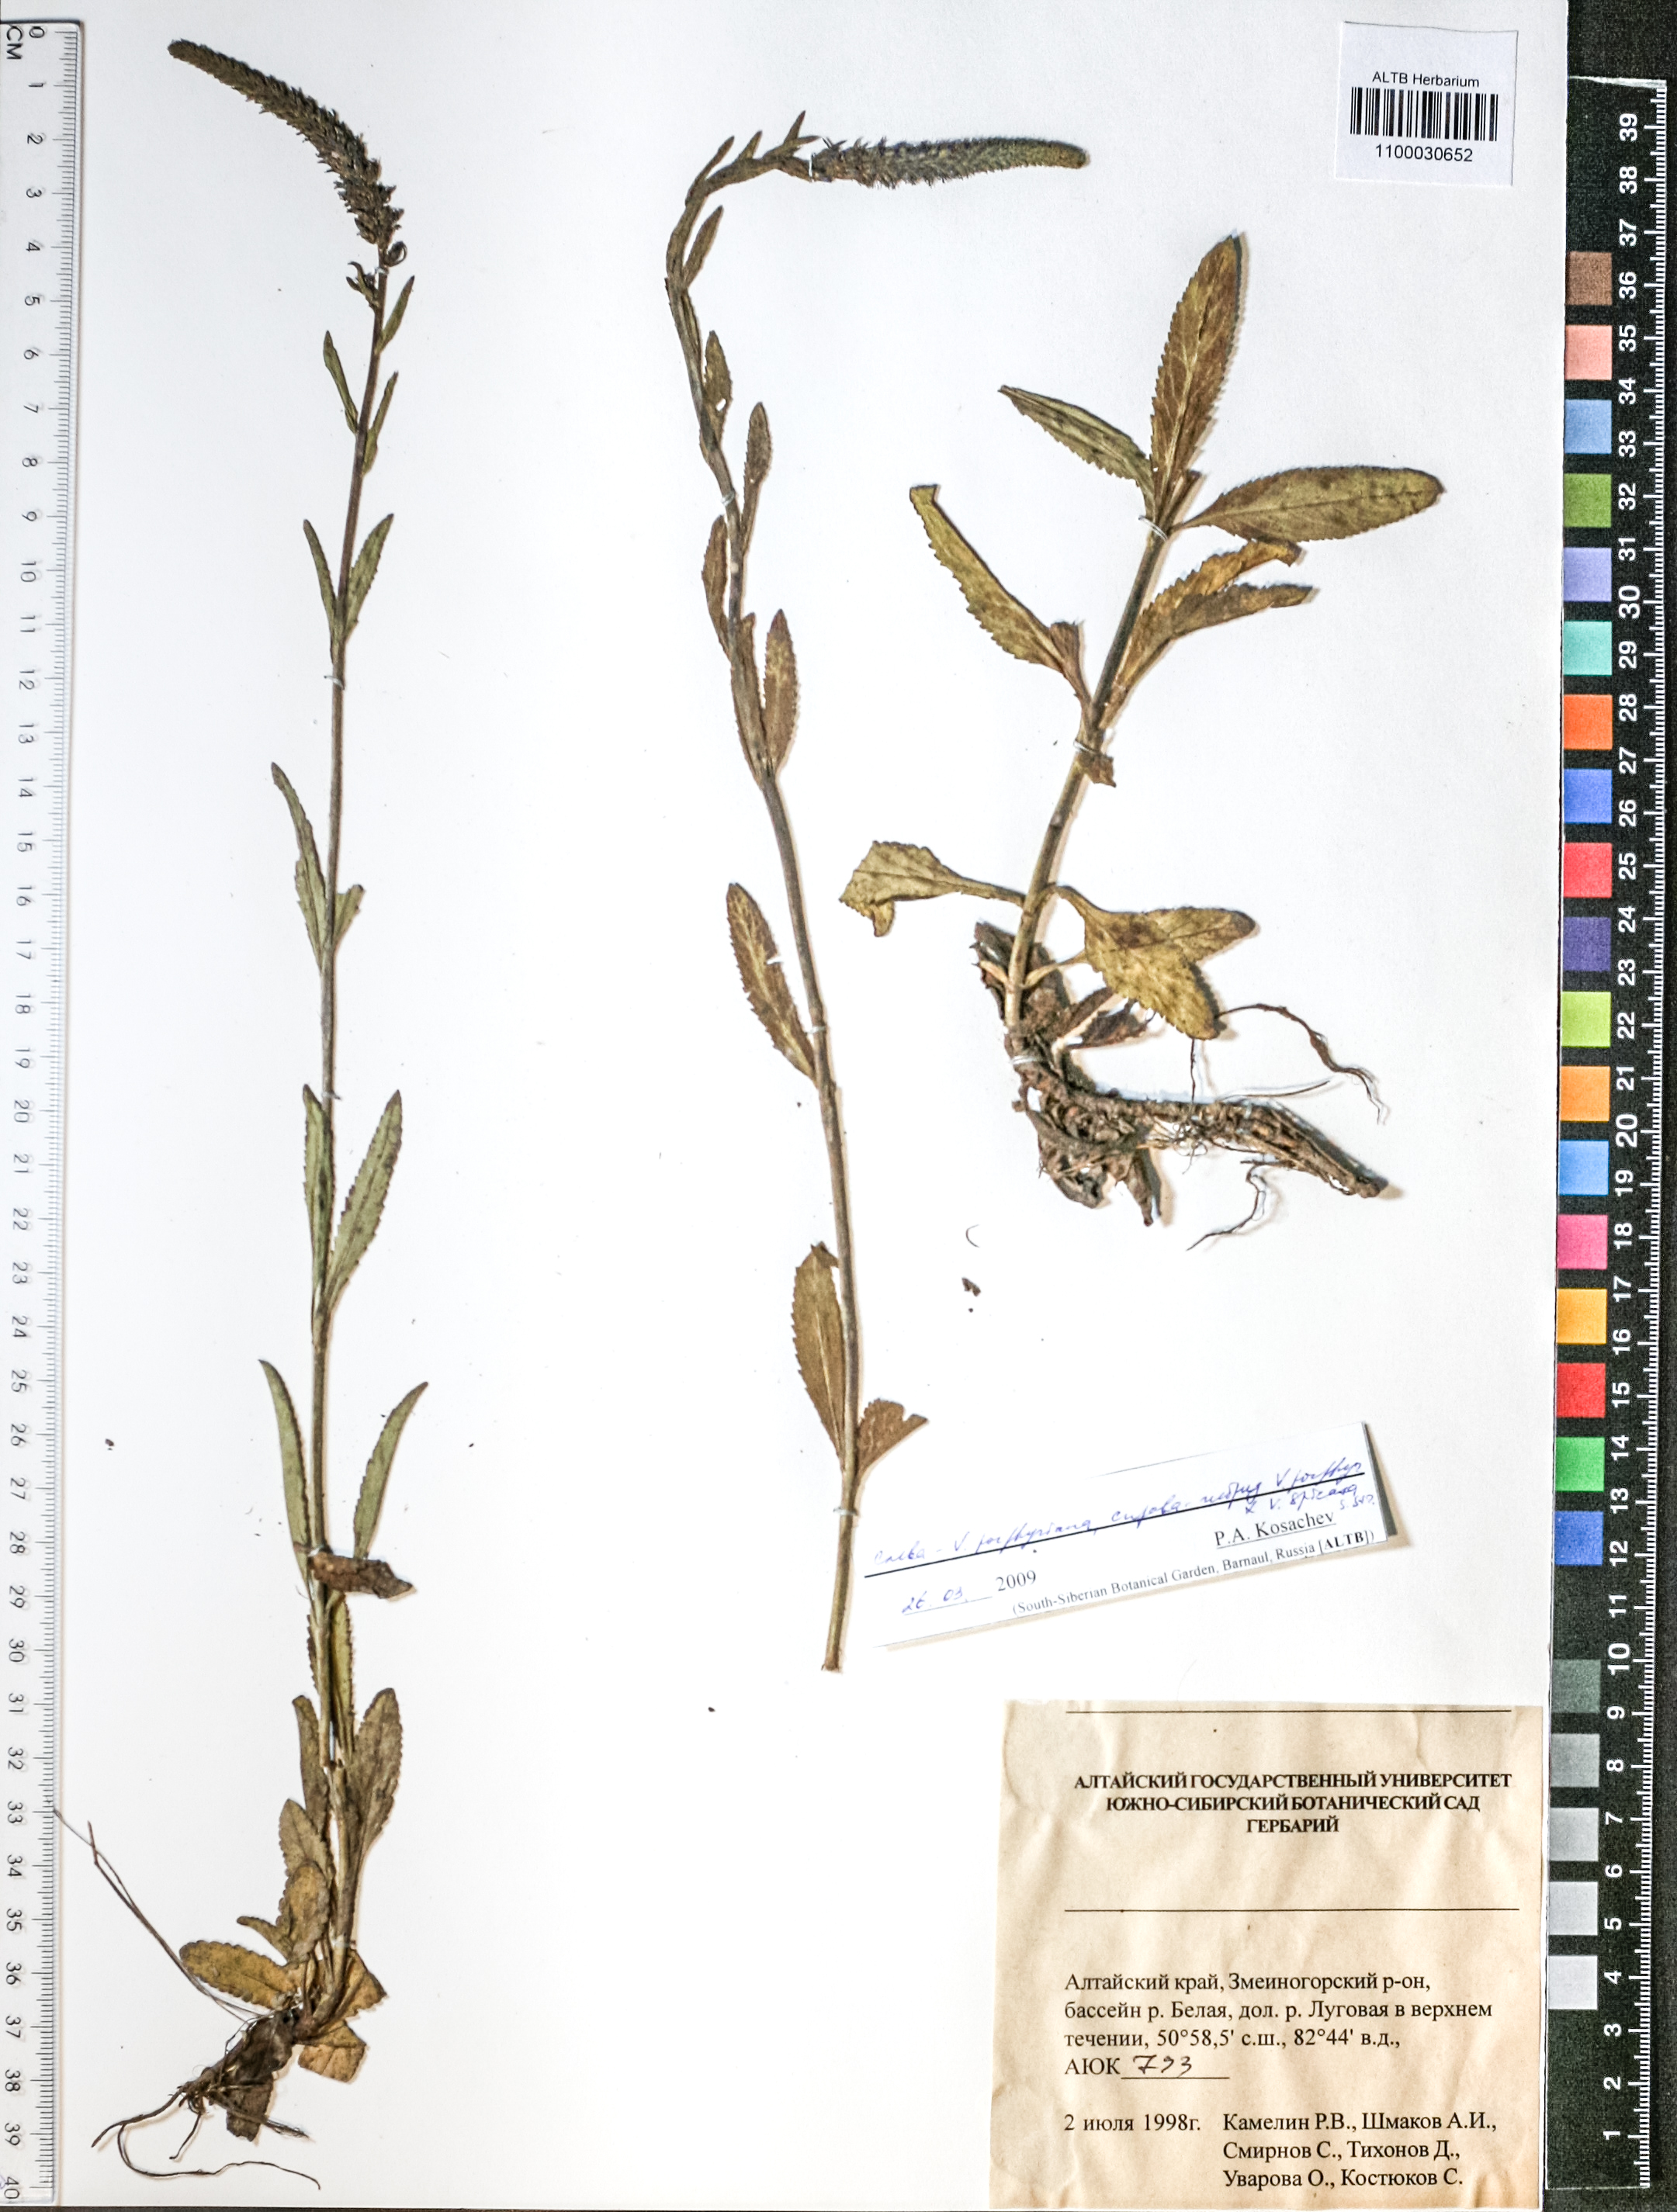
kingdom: Plantae
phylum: Tracheophyta
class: Magnoliopsida
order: Lamiales
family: Plantaginaceae
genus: Veronica
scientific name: Veronica porphyriana
